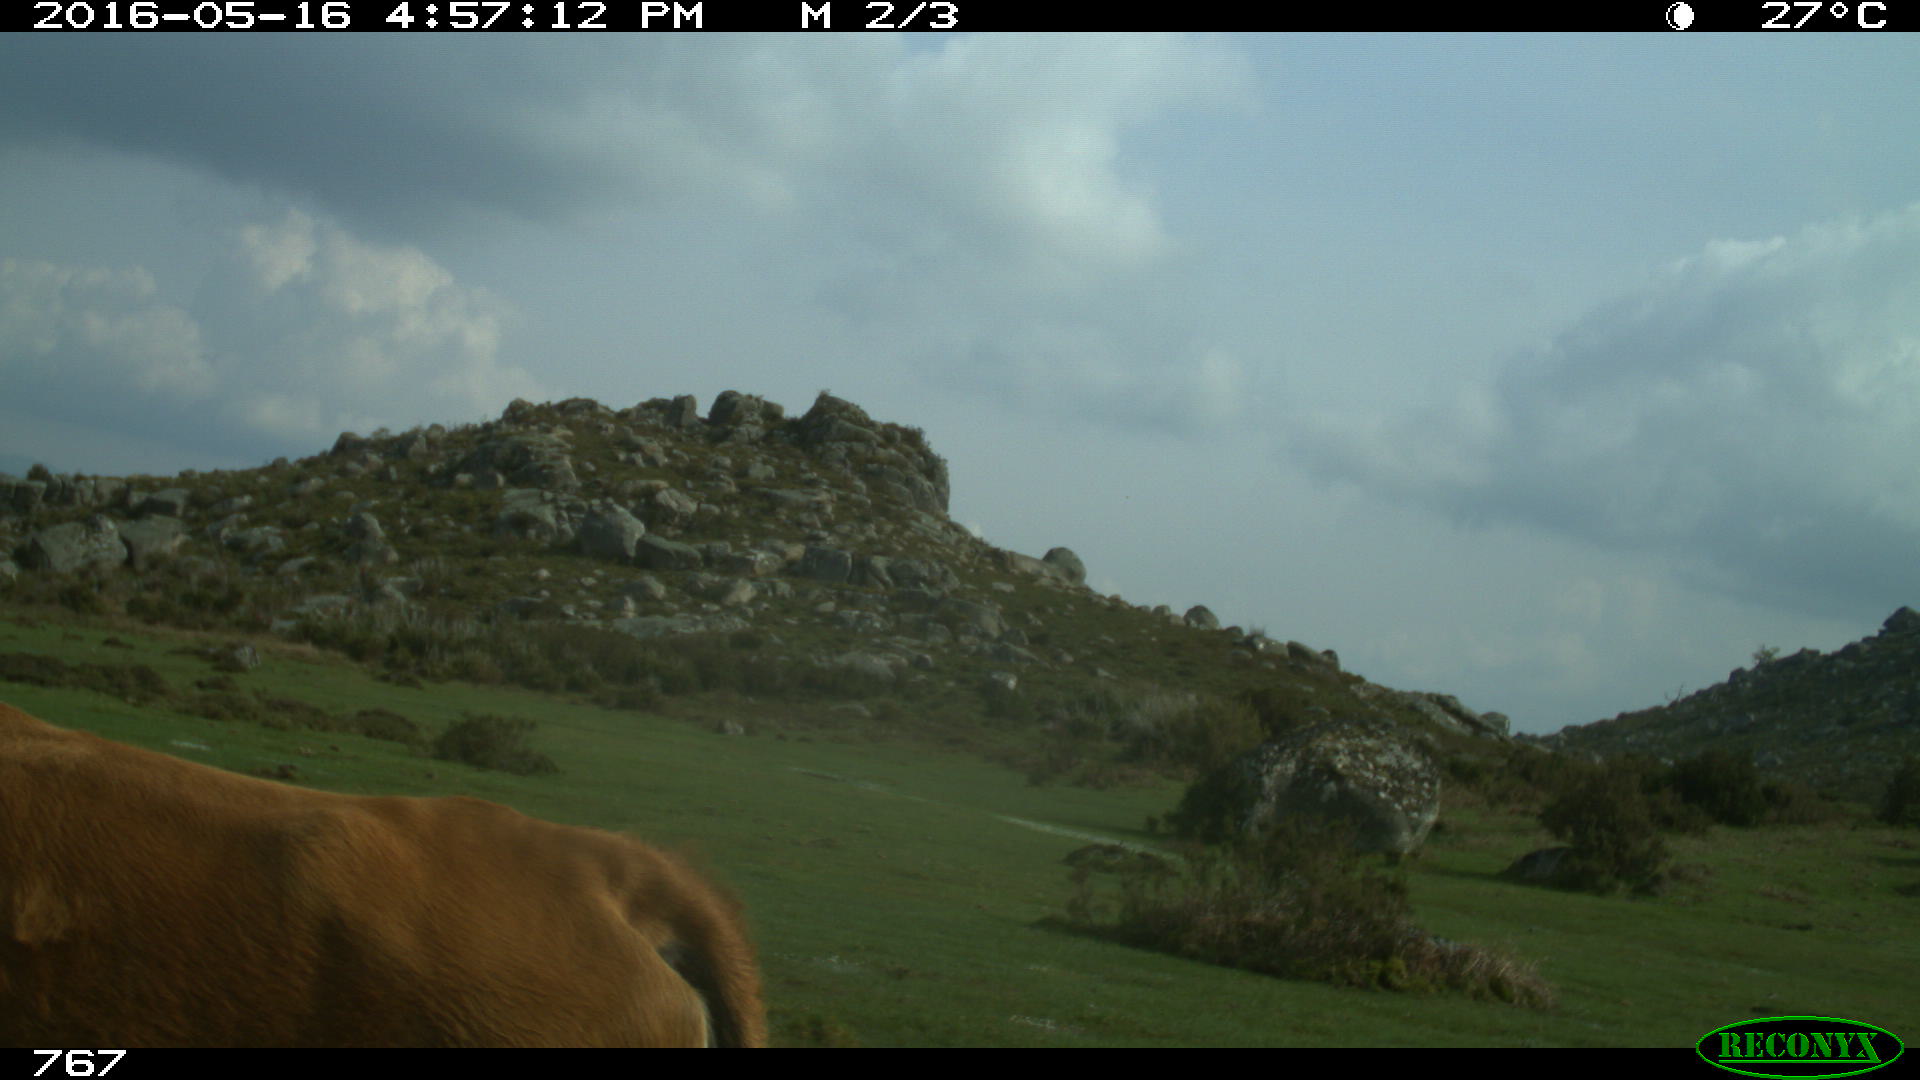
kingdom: Animalia
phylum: Chordata
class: Mammalia
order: Artiodactyla
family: Bovidae
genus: Bos
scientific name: Bos taurus
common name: Domesticated cattle
